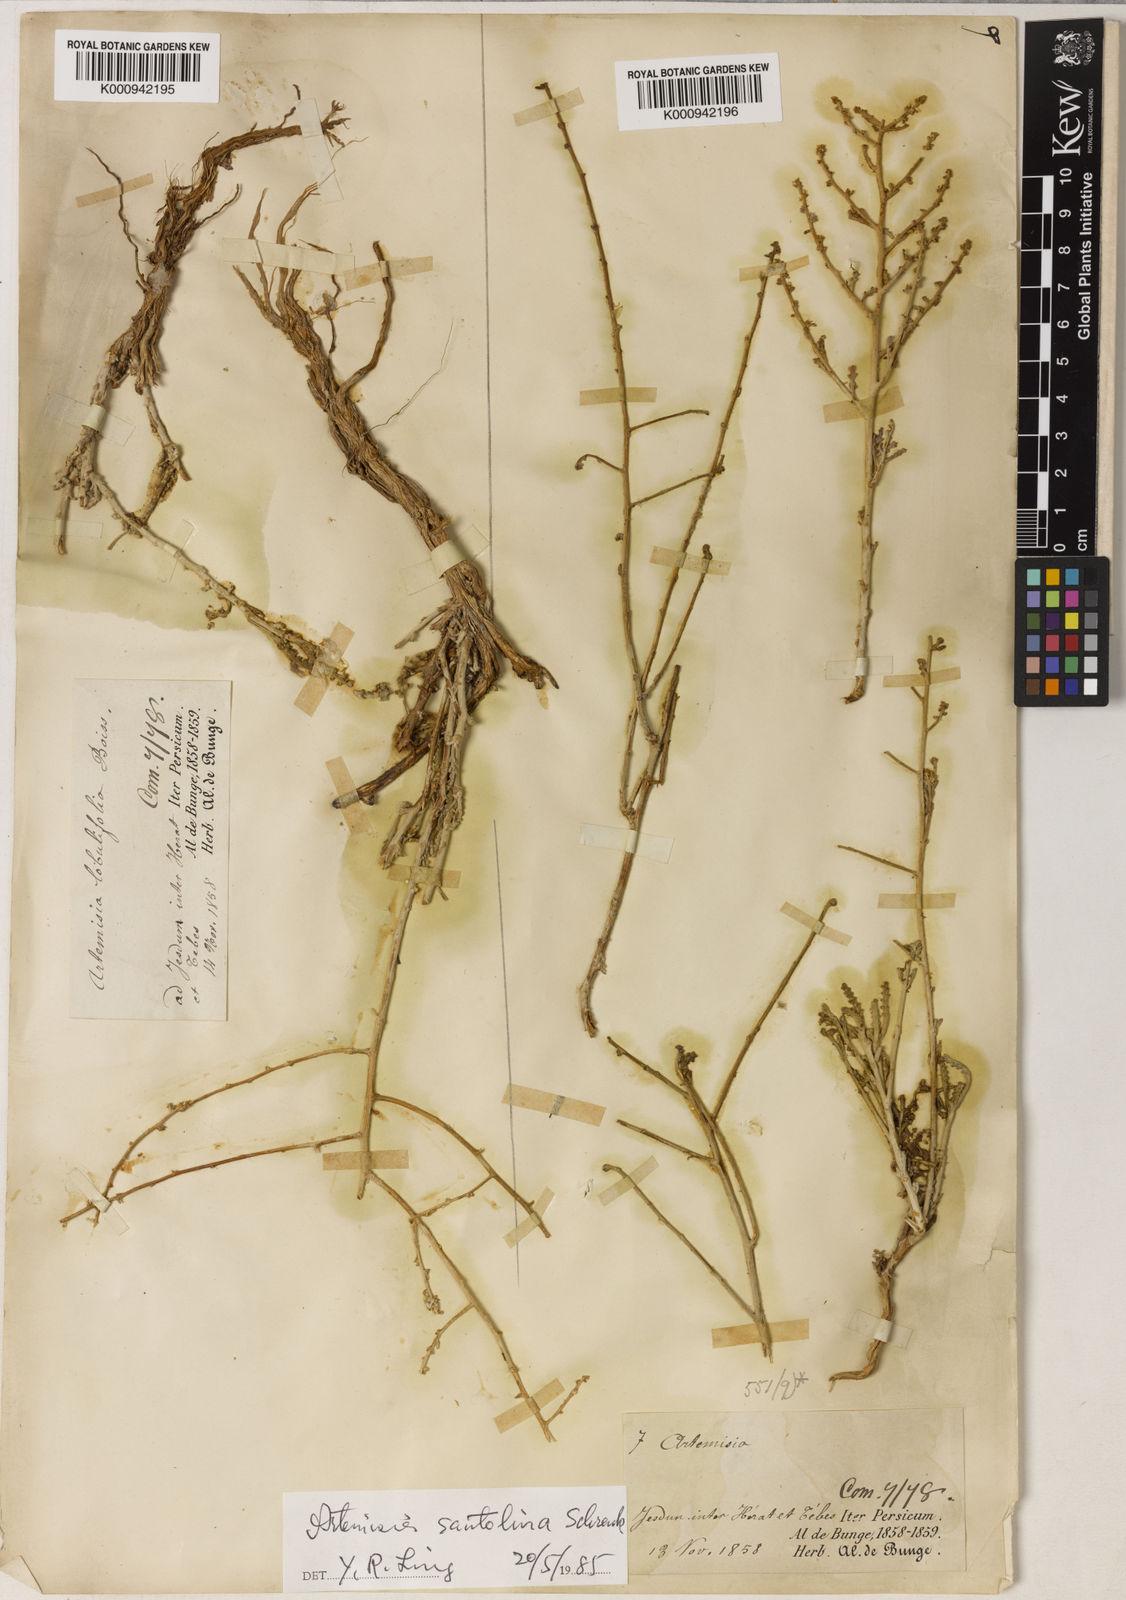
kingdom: Plantae
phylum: Tracheophyta
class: Magnoliopsida
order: Asterales
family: Asteraceae
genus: Artemisia
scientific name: Artemisia santonicum
